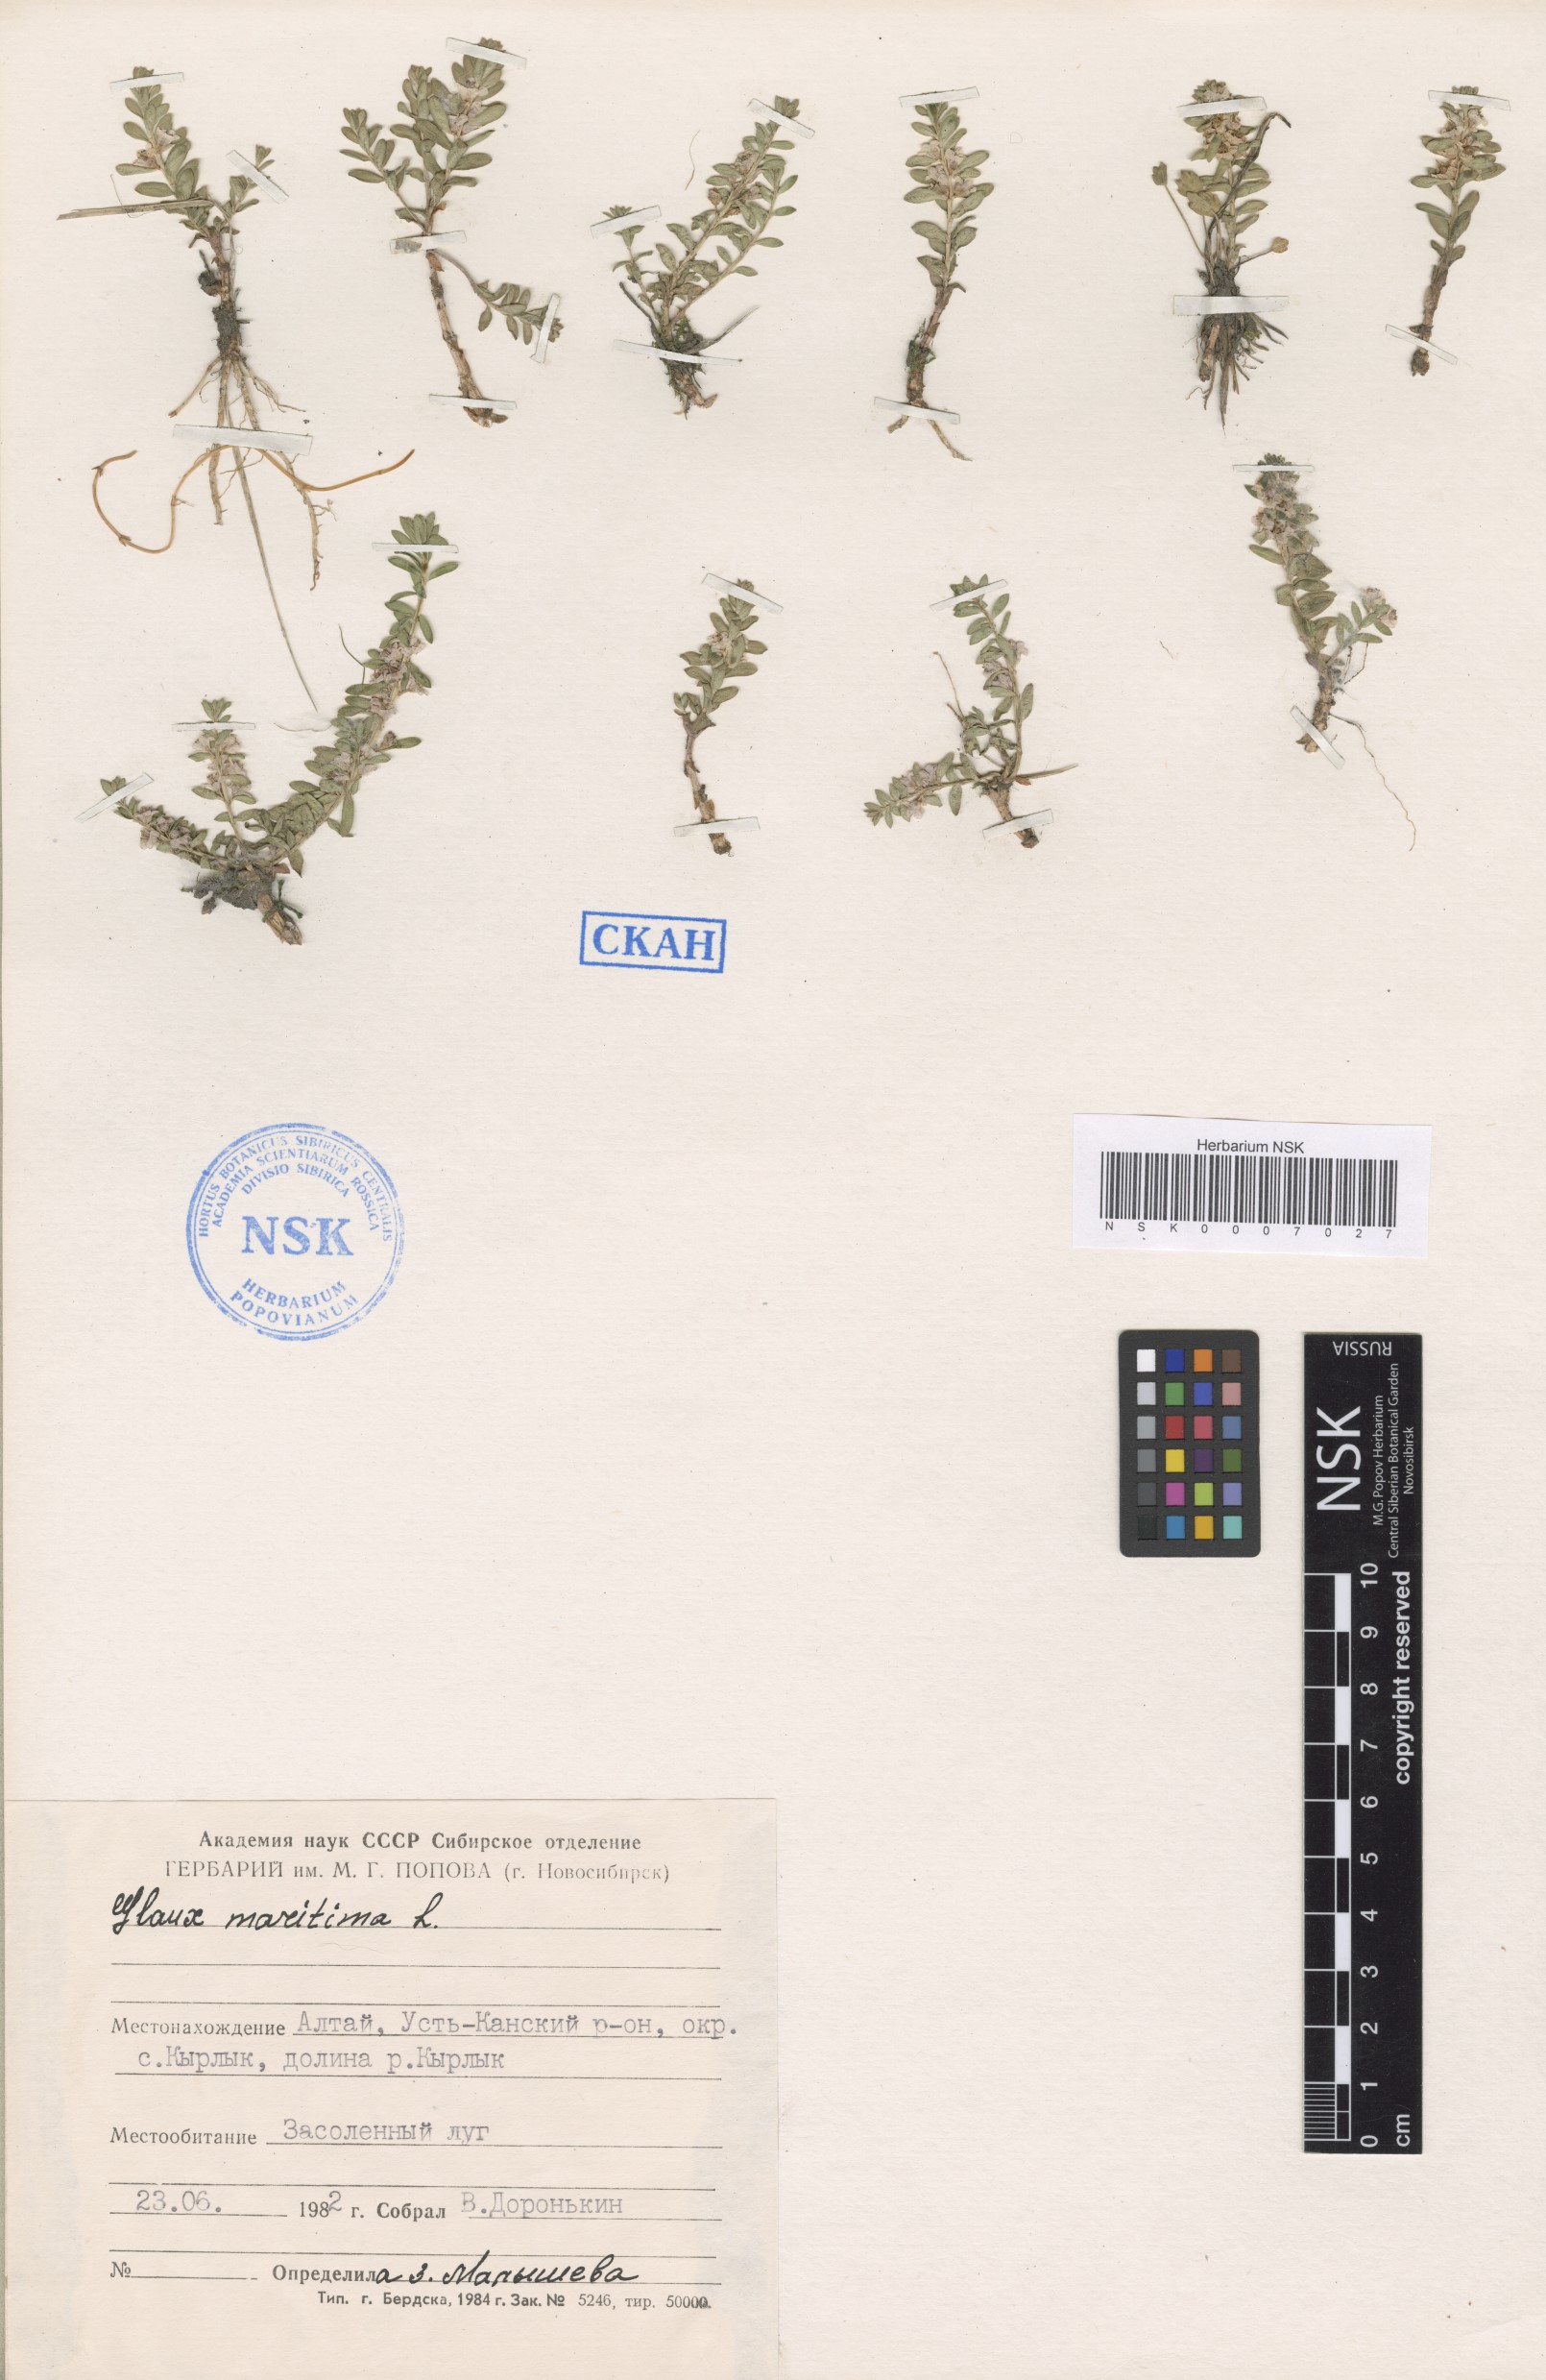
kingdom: Plantae
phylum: Tracheophyta
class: Magnoliopsida
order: Ericales
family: Primulaceae
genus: Lysimachia
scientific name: Lysimachia maritima
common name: Sea milkwort
